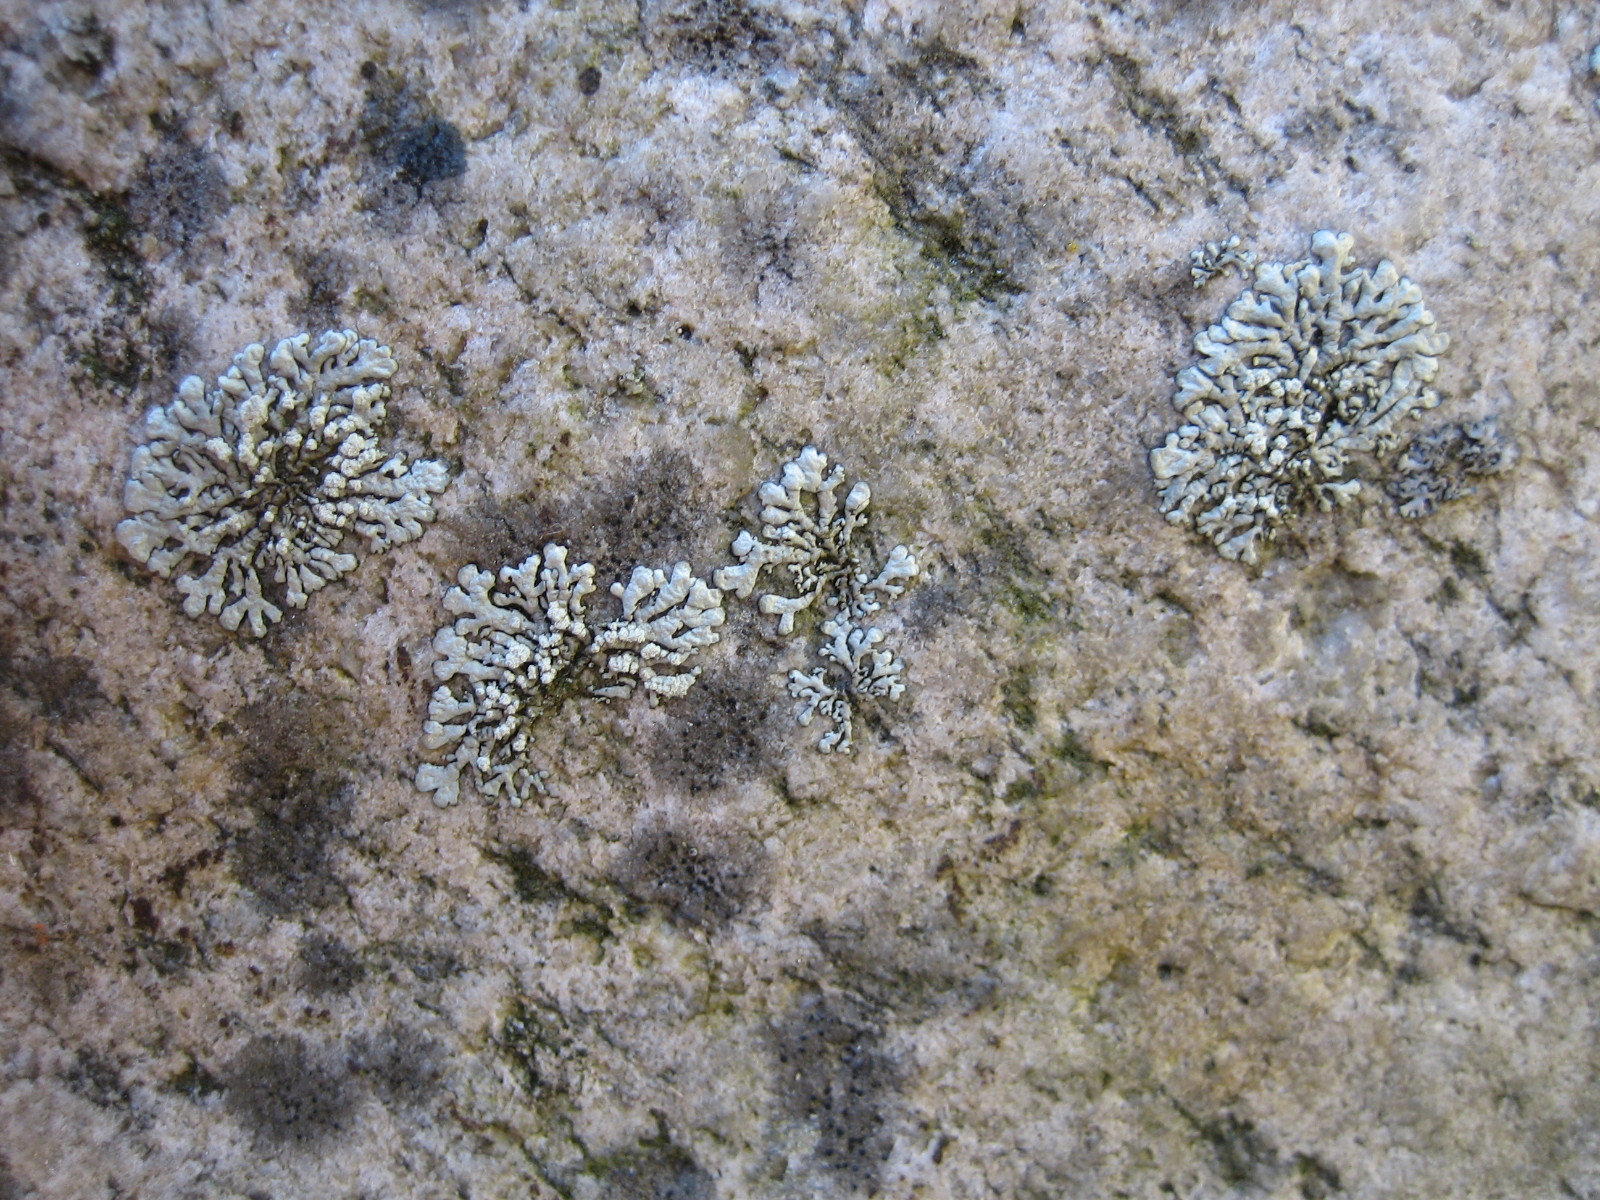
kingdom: Fungi
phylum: Ascomycota
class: Lecanoromycetes
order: Lecanorales
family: Parmeliaceae
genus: Xanthoparmelia
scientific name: Xanthoparmelia mougeotii
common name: liden skållav
